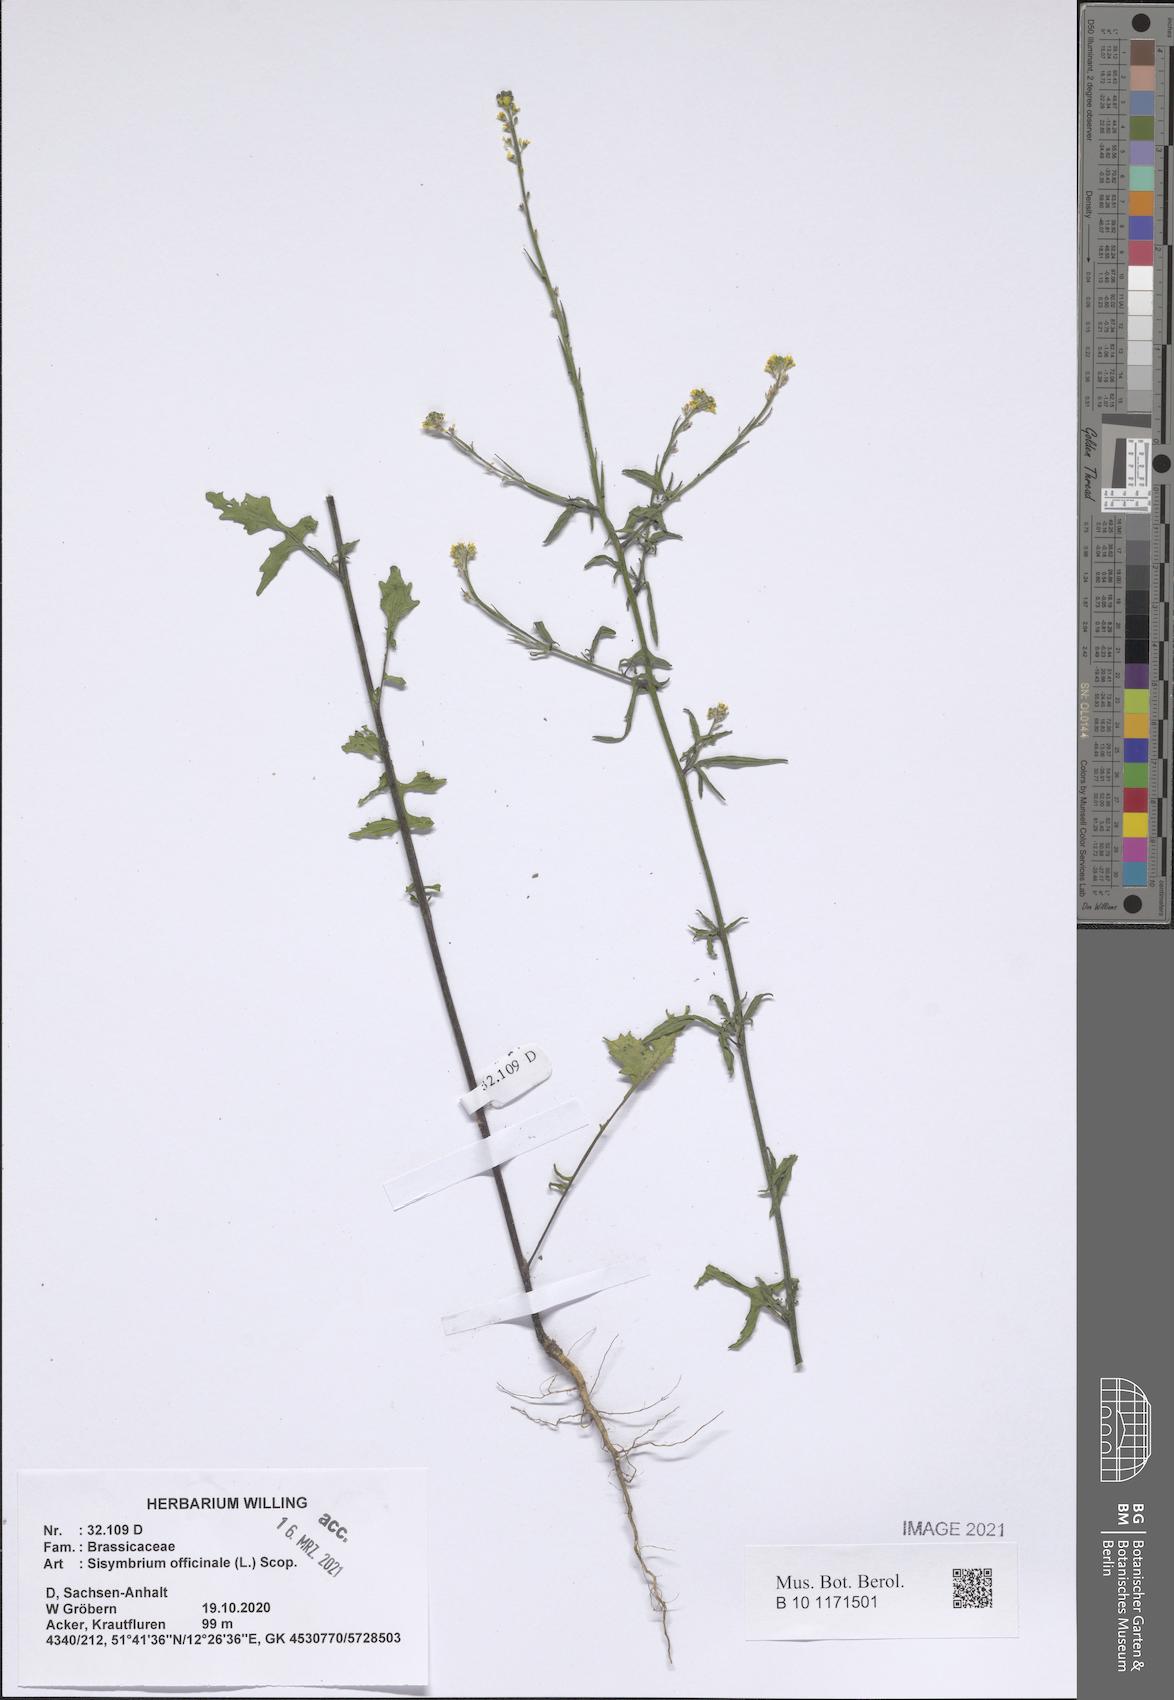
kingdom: Plantae
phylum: Tracheophyta
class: Magnoliopsida
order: Brassicales
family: Brassicaceae
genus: Sisymbrium
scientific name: Sisymbrium officinale
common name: Hedge mustard
